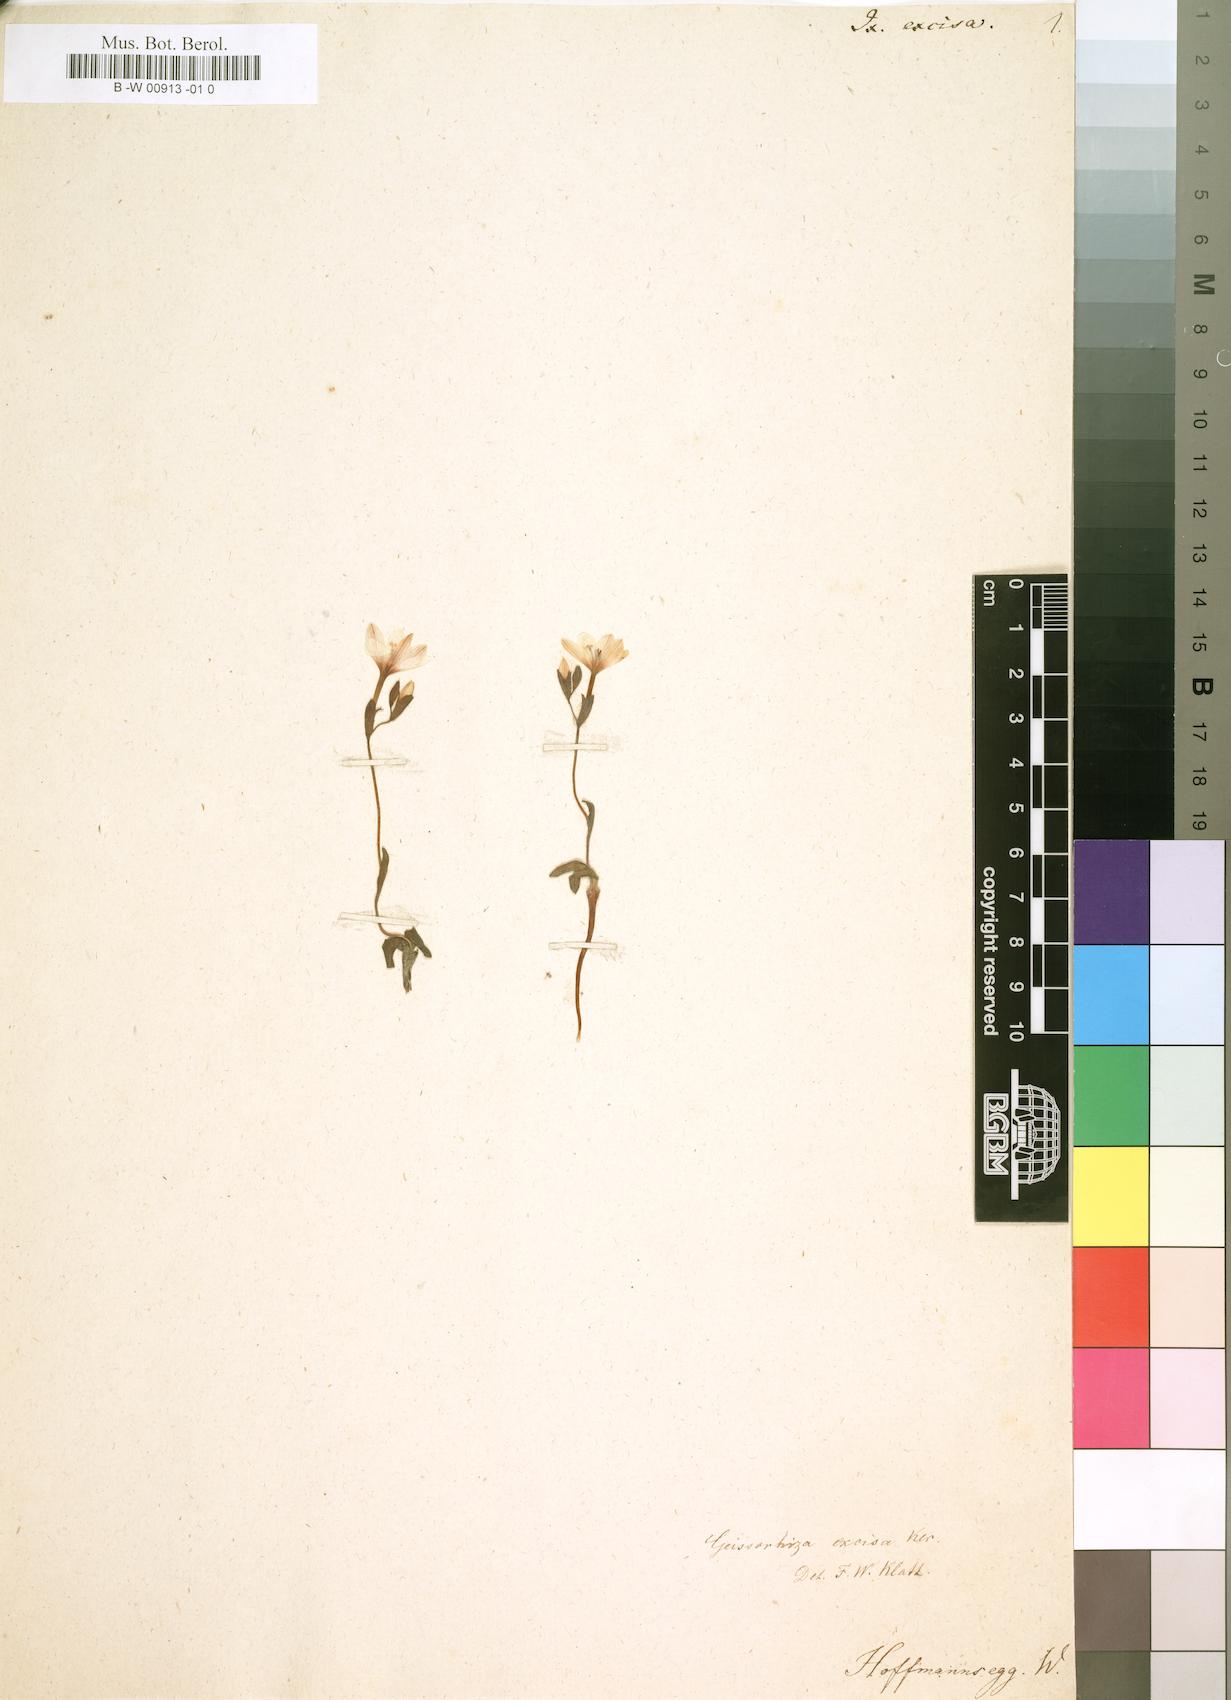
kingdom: Plantae
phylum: Tracheophyta
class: Liliopsida
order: Asparagales
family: Iridaceae
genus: Geissorhiza
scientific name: Geissorhiza ovata
